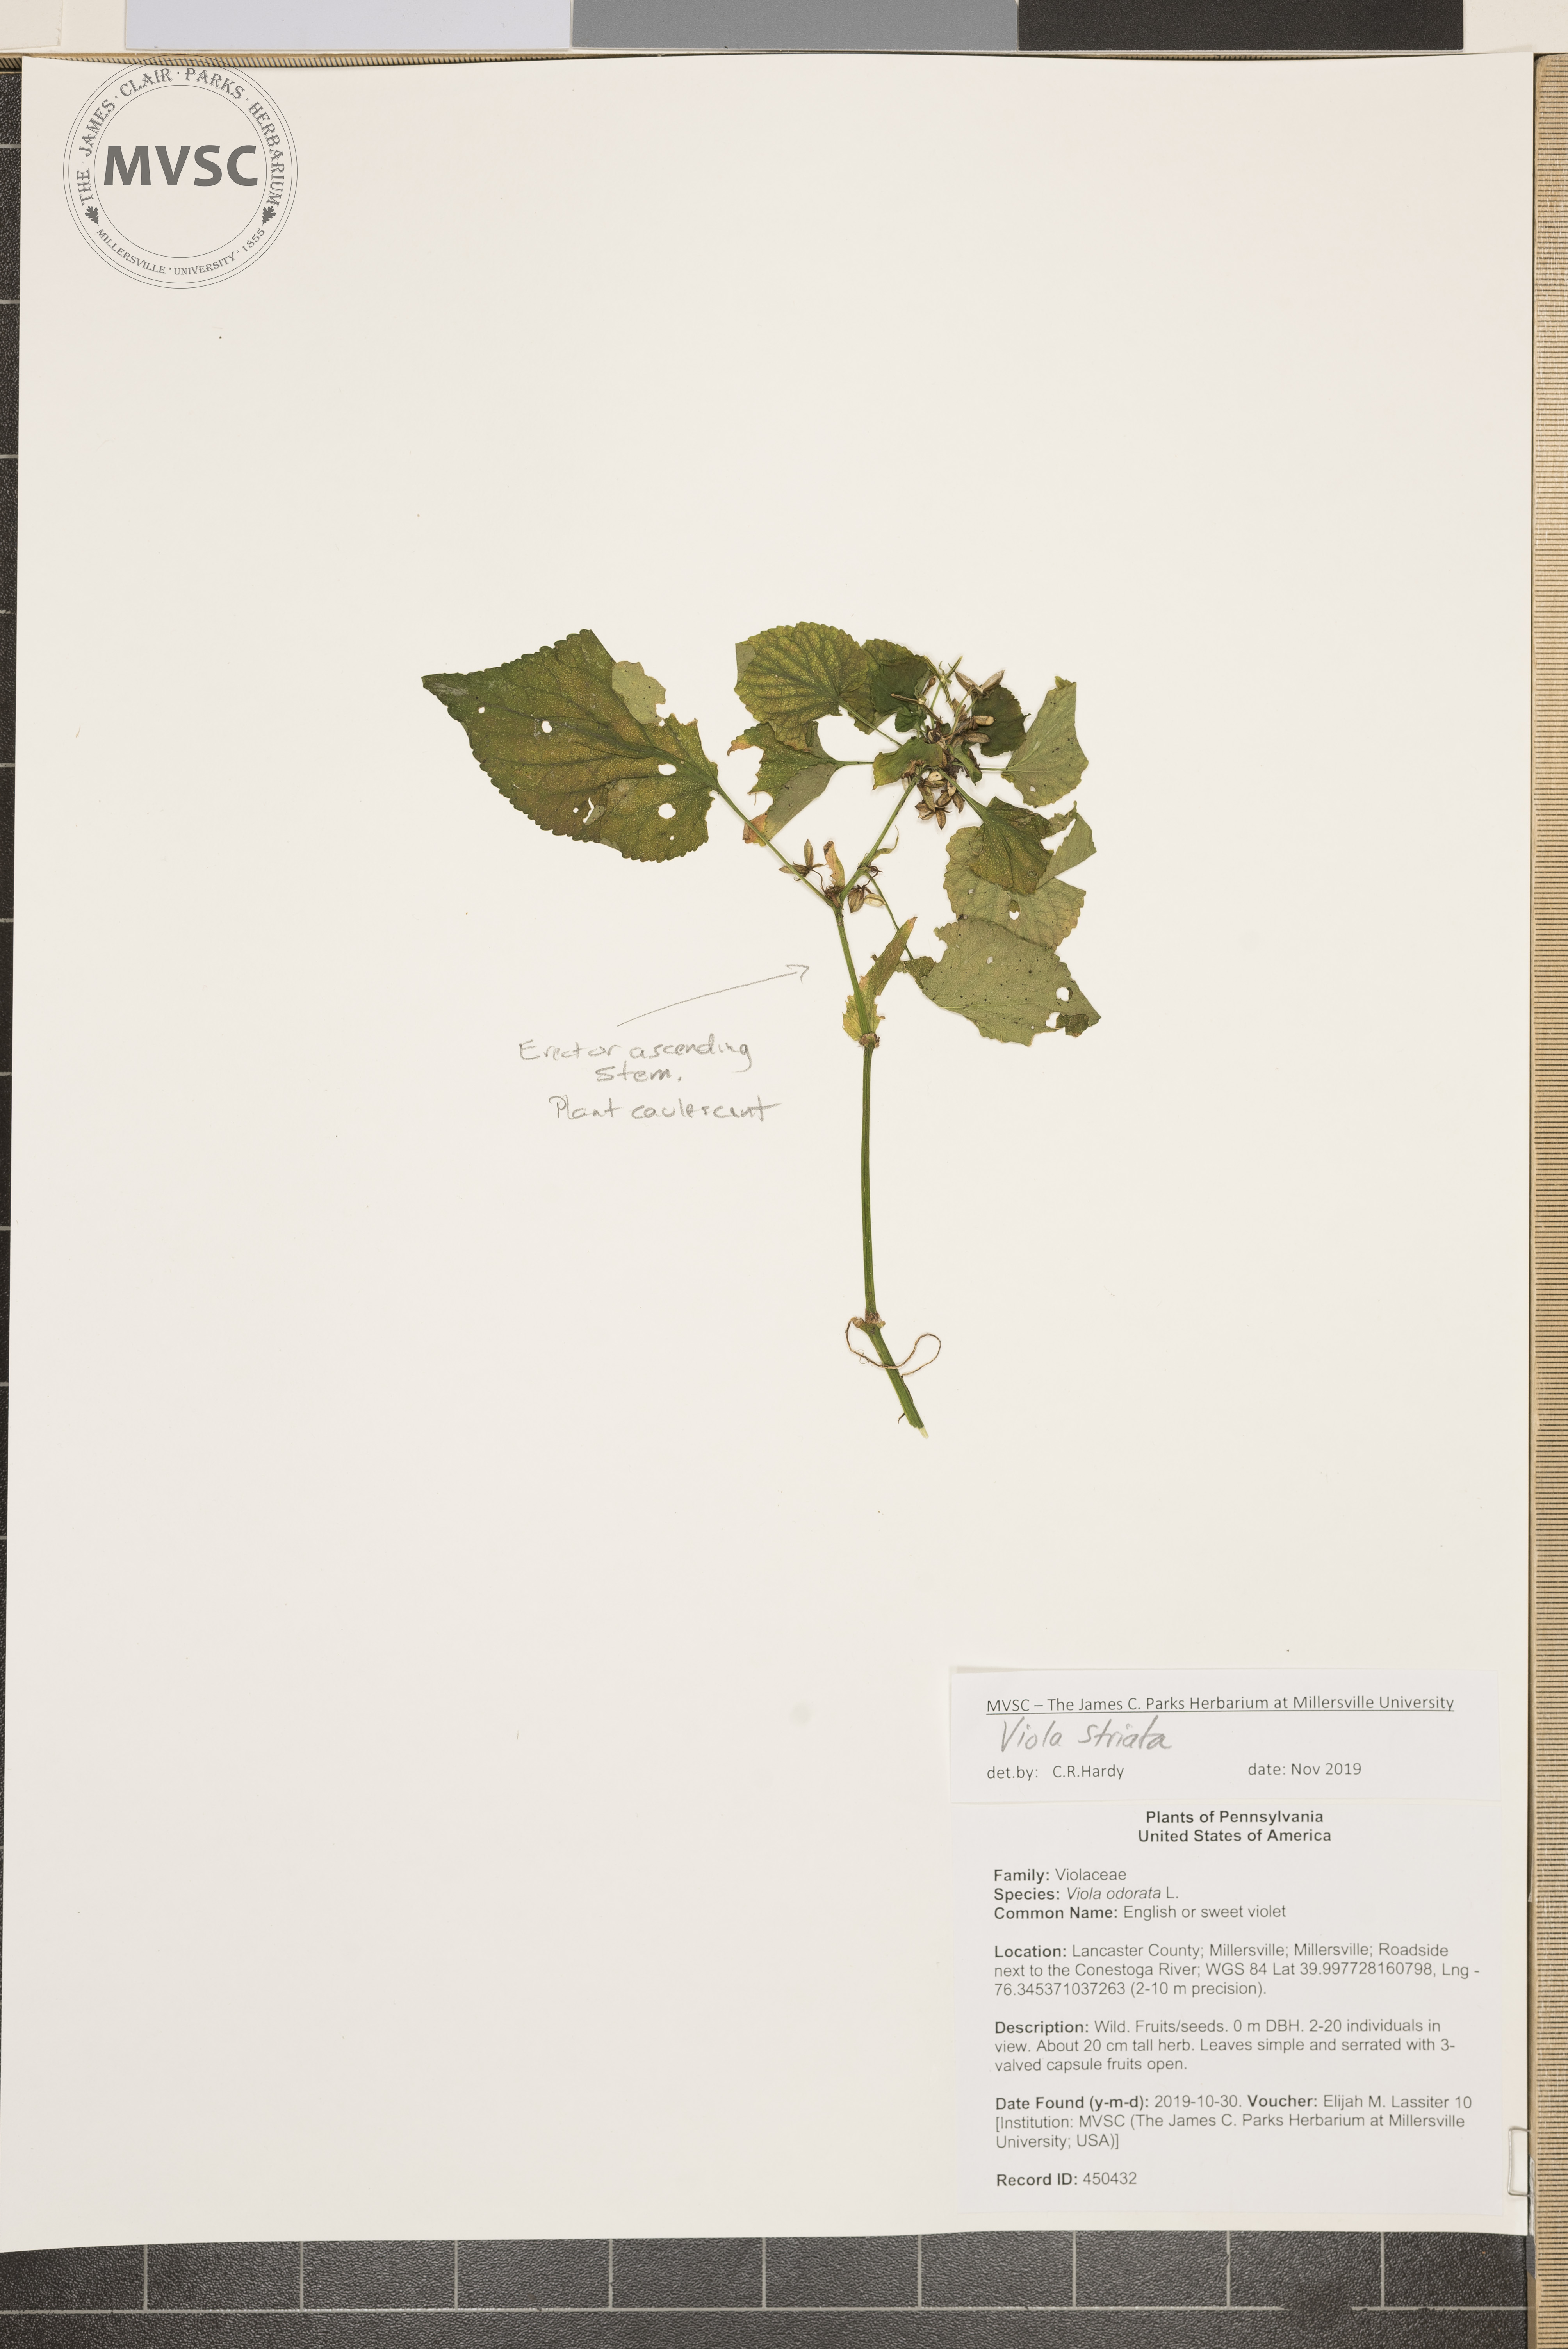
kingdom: Plantae
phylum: Tracheophyta
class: Magnoliopsida
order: Malpighiales
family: Violaceae
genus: Viola
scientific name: Viola striata
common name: Violet
